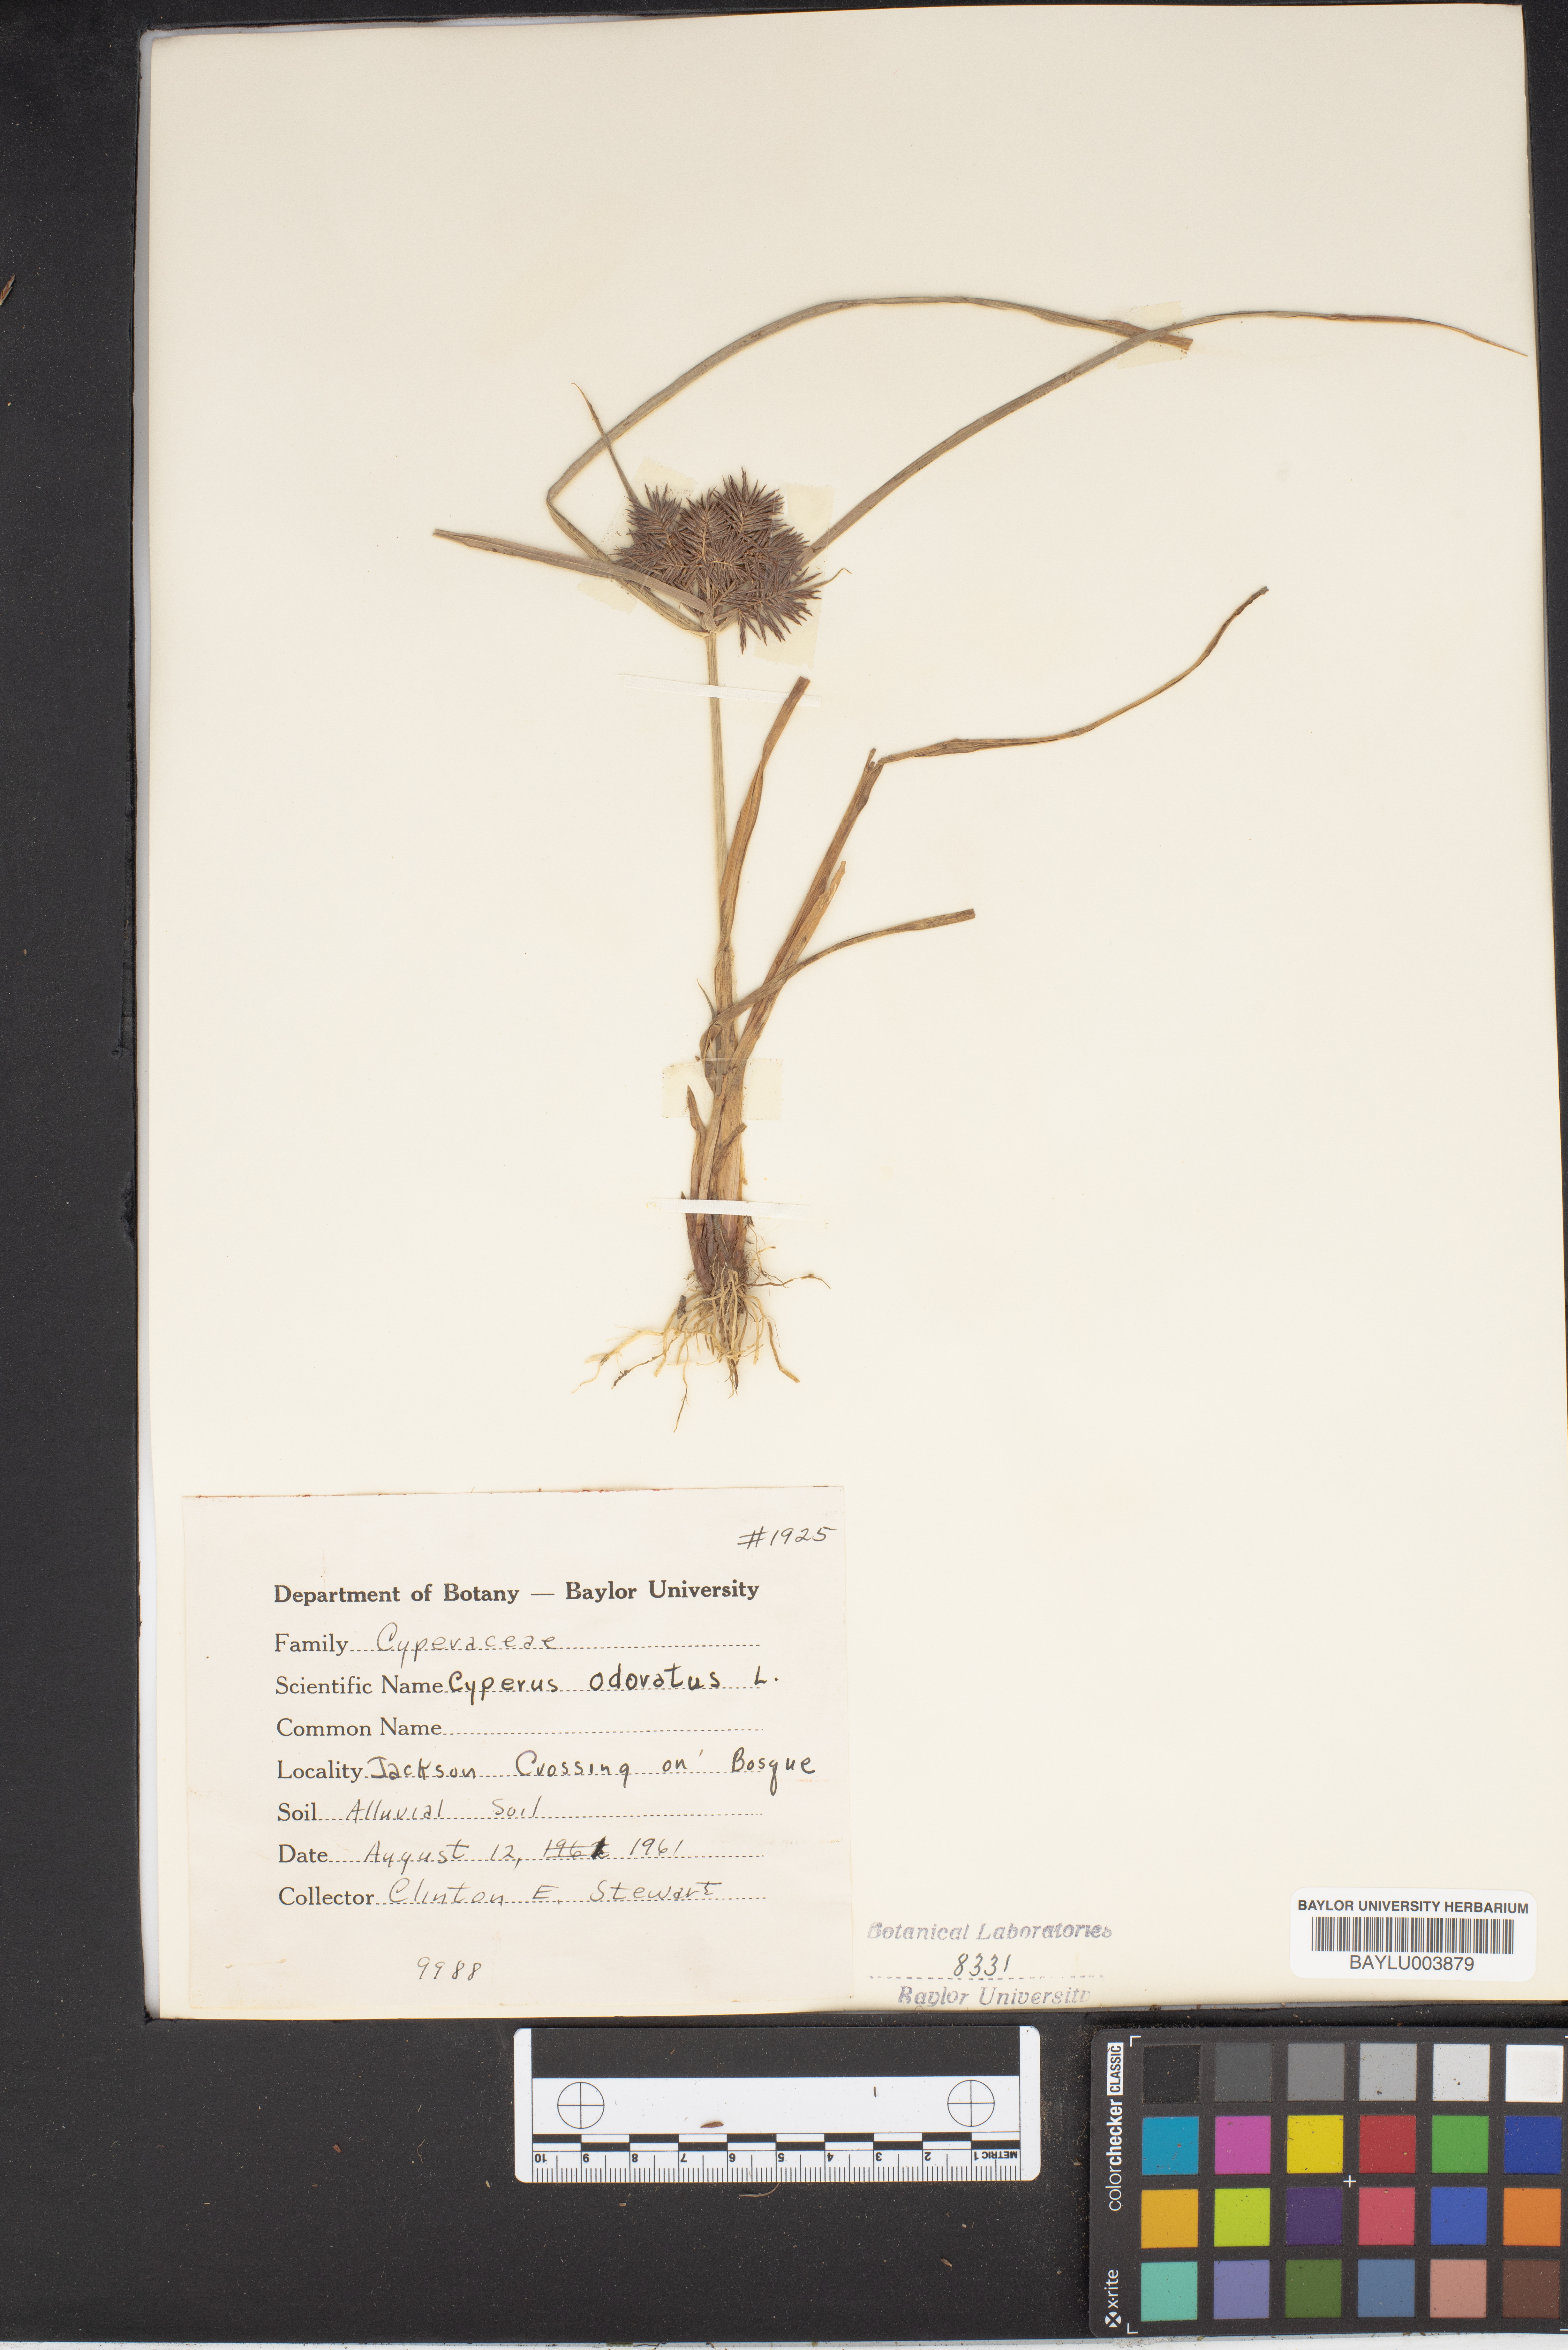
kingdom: Plantae
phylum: Tracheophyta
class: Liliopsida
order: Poales
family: Cyperaceae
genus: Cyperus
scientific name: Cyperus odoratus
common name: Fragrant flatsedge
